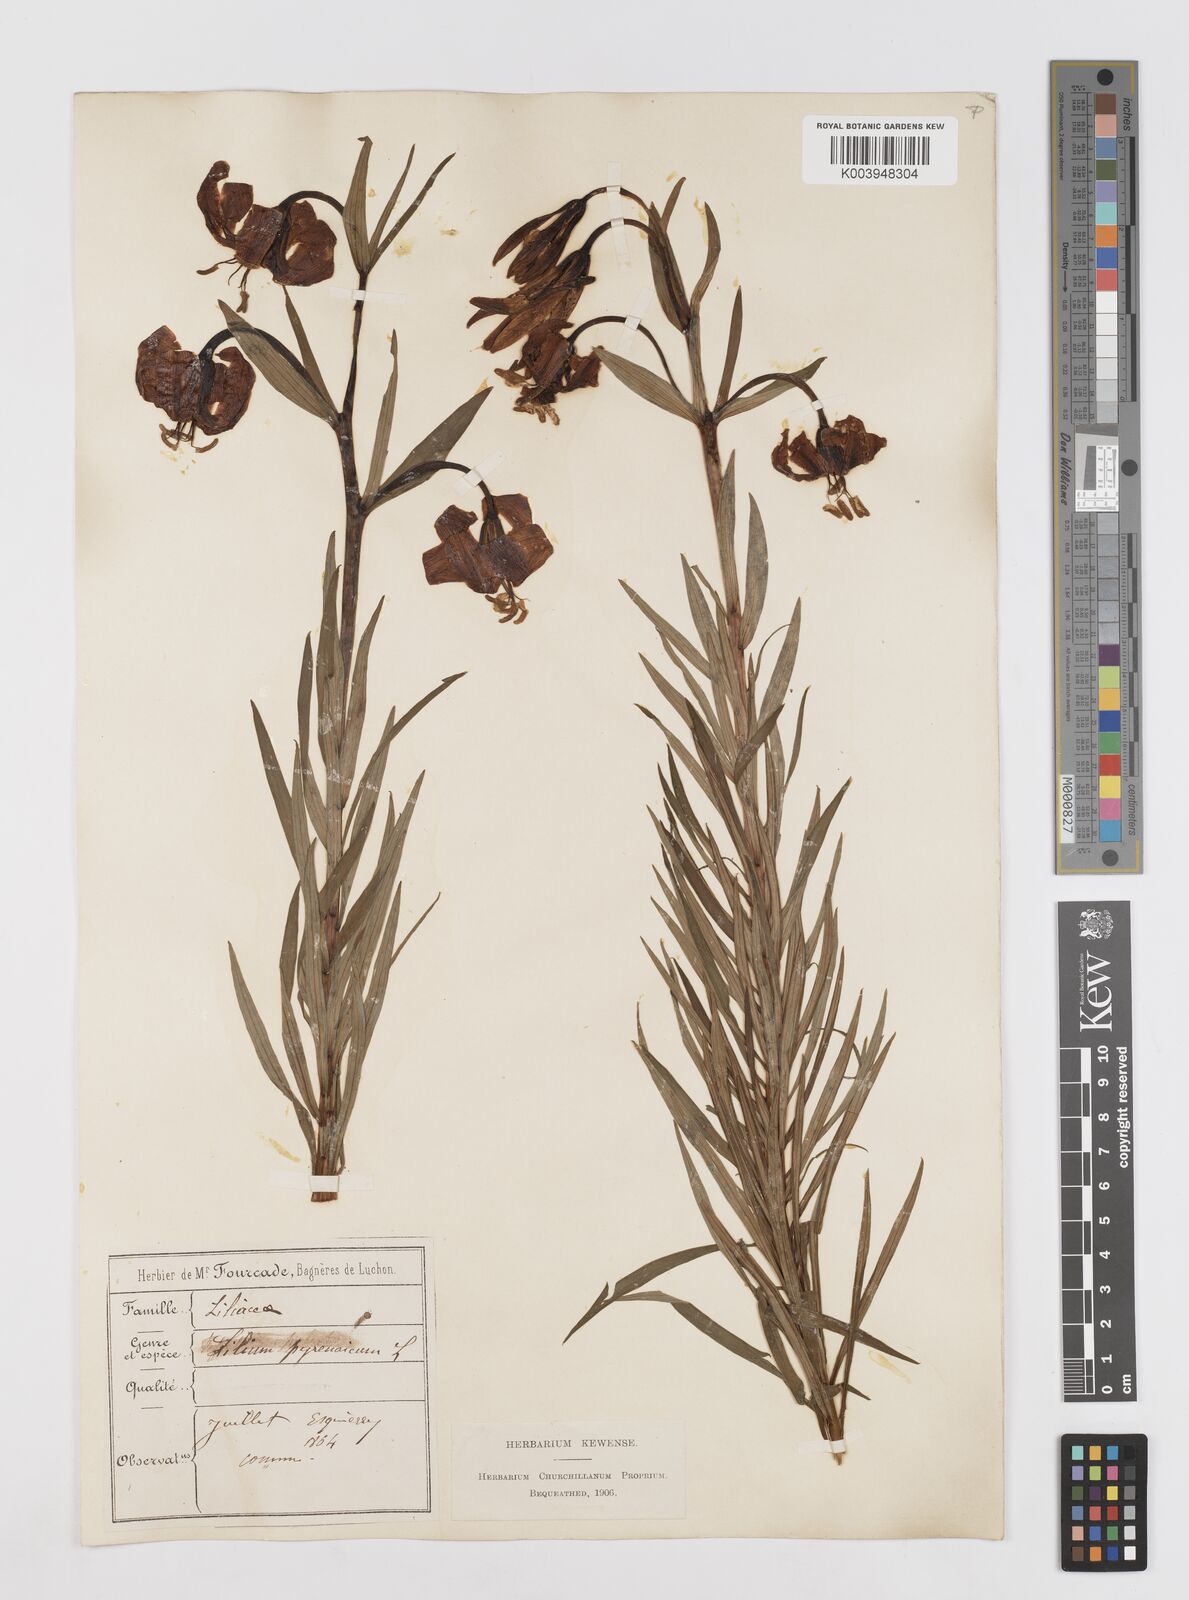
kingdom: Plantae
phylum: Tracheophyta
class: Liliopsida
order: Liliales
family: Liliaceae
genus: Lilium
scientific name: Lilium pyrenaicum
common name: Pyrenean lily
